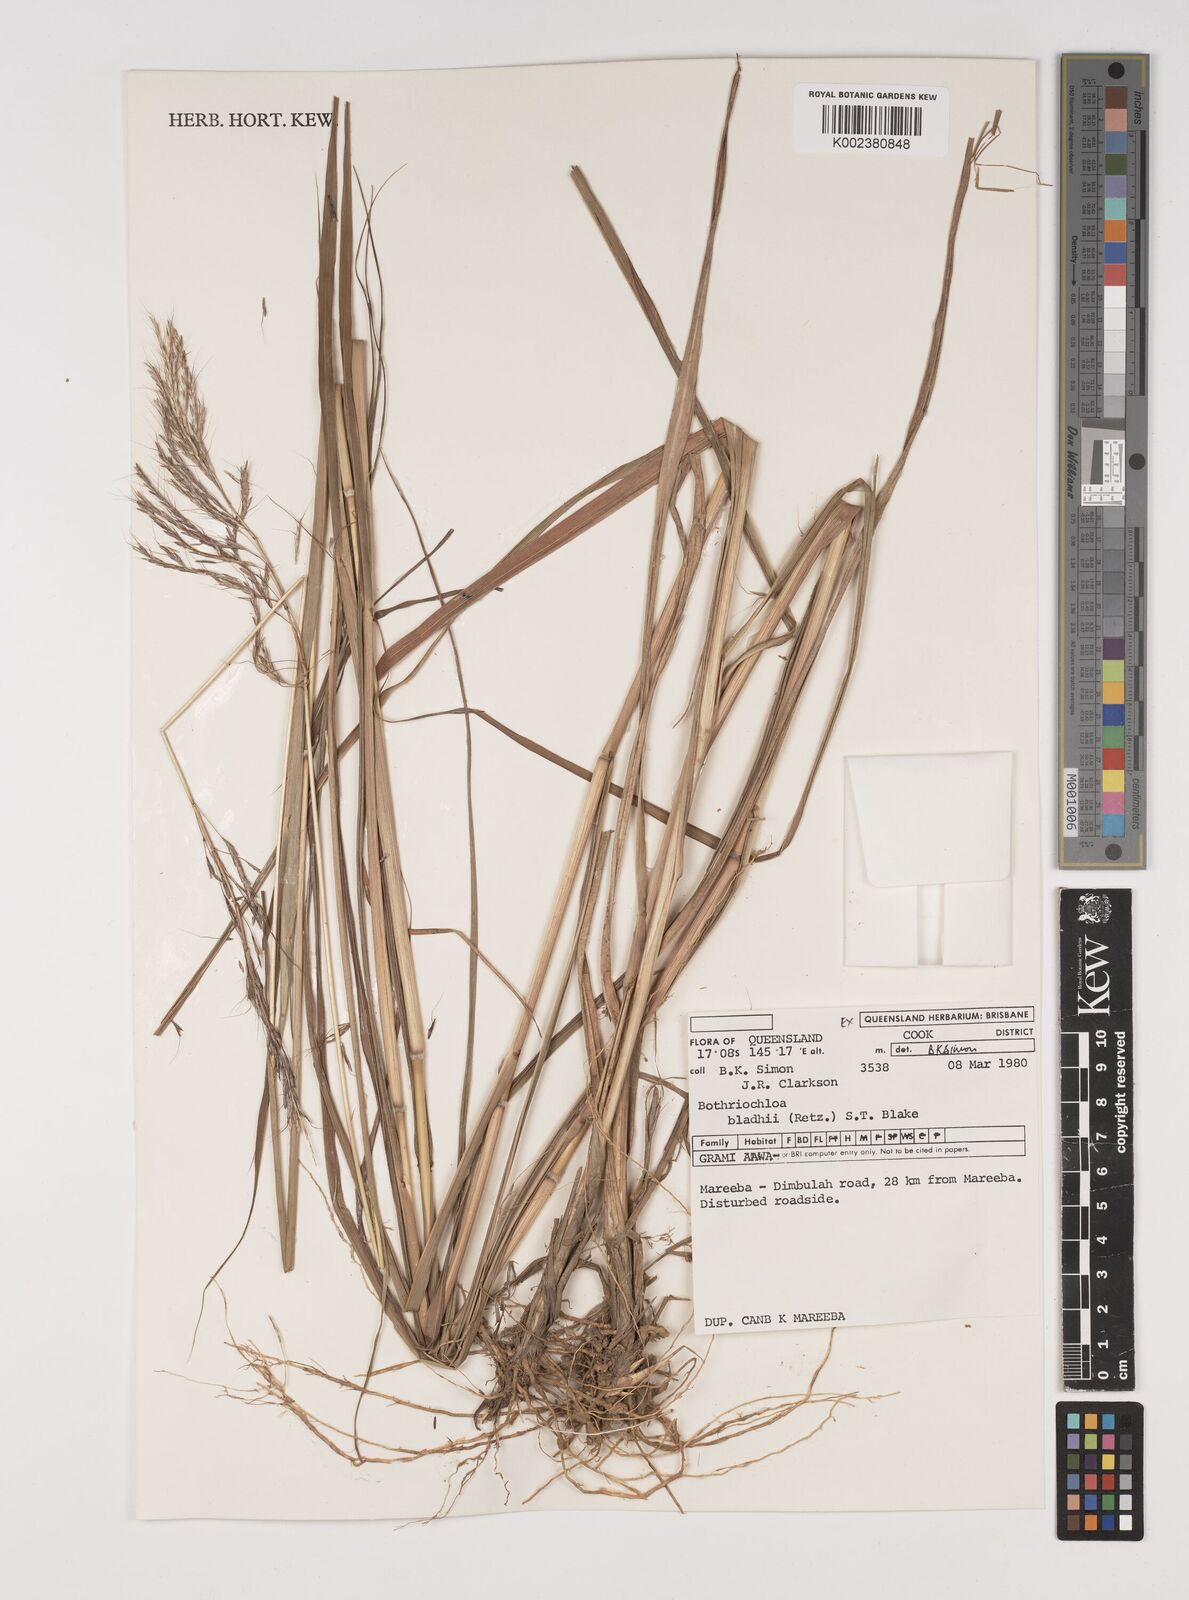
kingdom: Plantae
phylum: Tracheophyta
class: Liliopsida
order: Poales
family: Poaceae
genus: Bothriochloa
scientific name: Bothriochloa bladhii
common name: Caucasian bluestem
